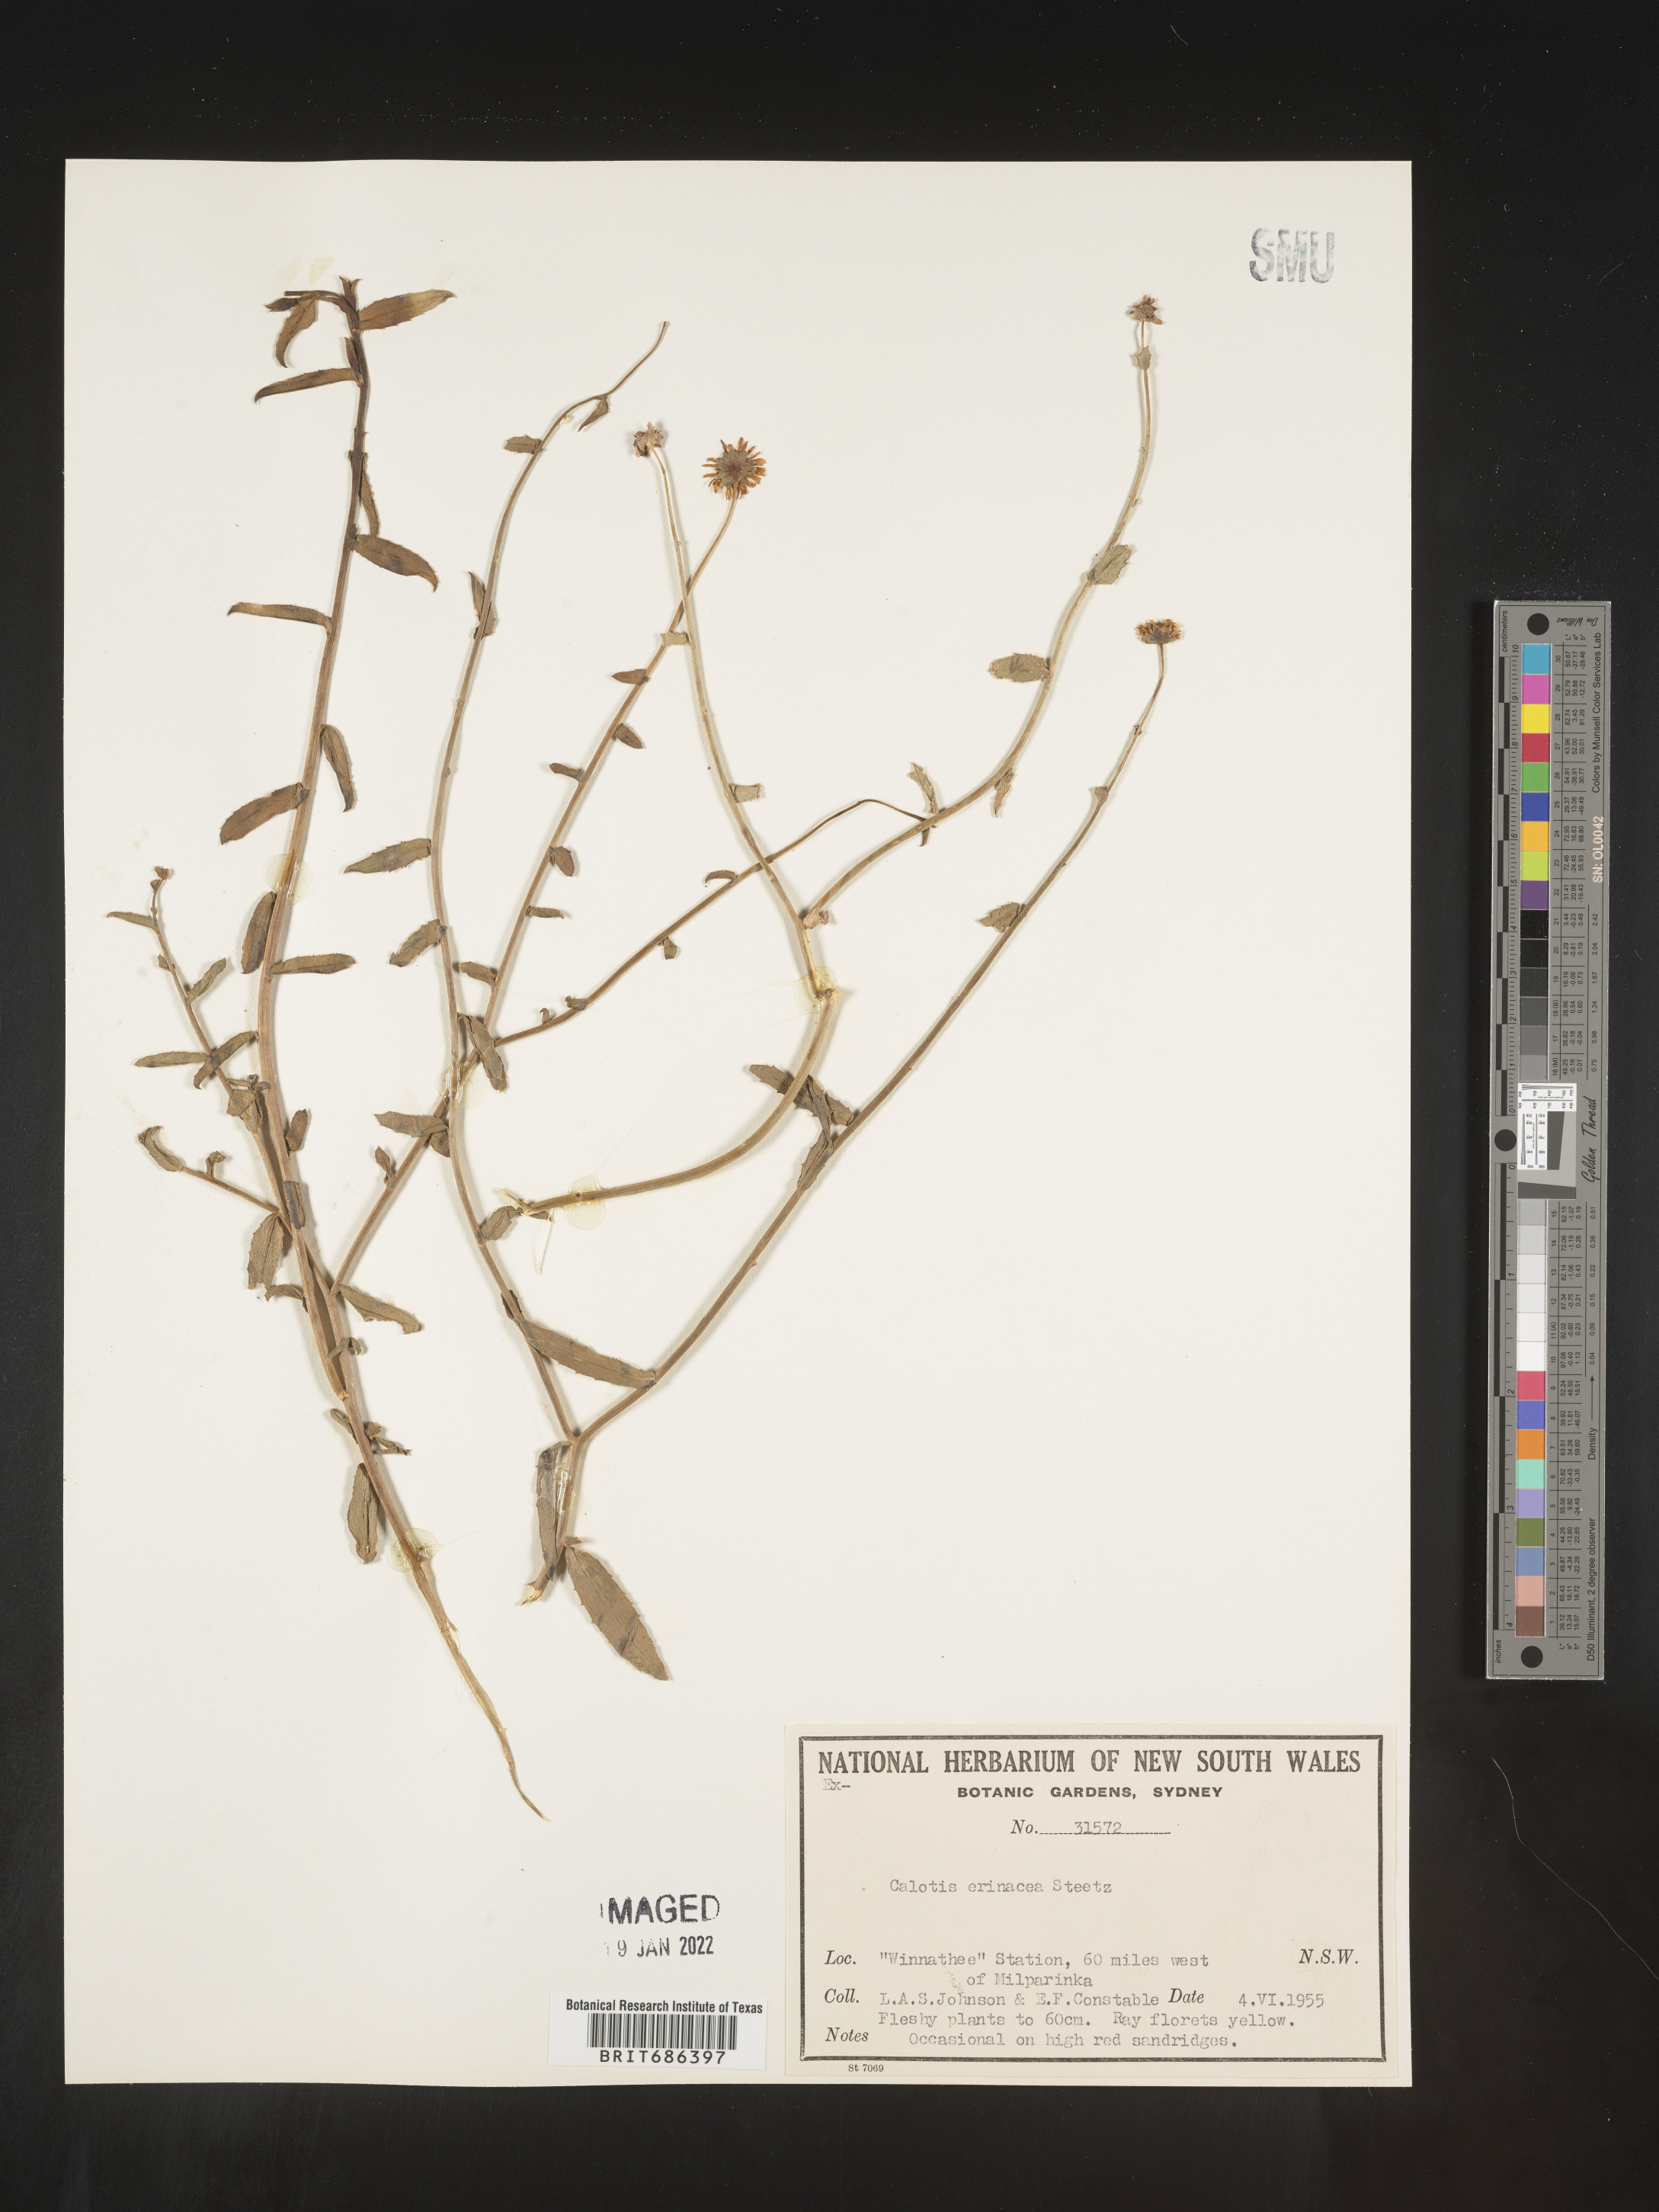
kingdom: Plantae
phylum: Tracheophyta
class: Magnoliopsida
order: Asterales
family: Asteraceae
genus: Calotis
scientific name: Calotis
